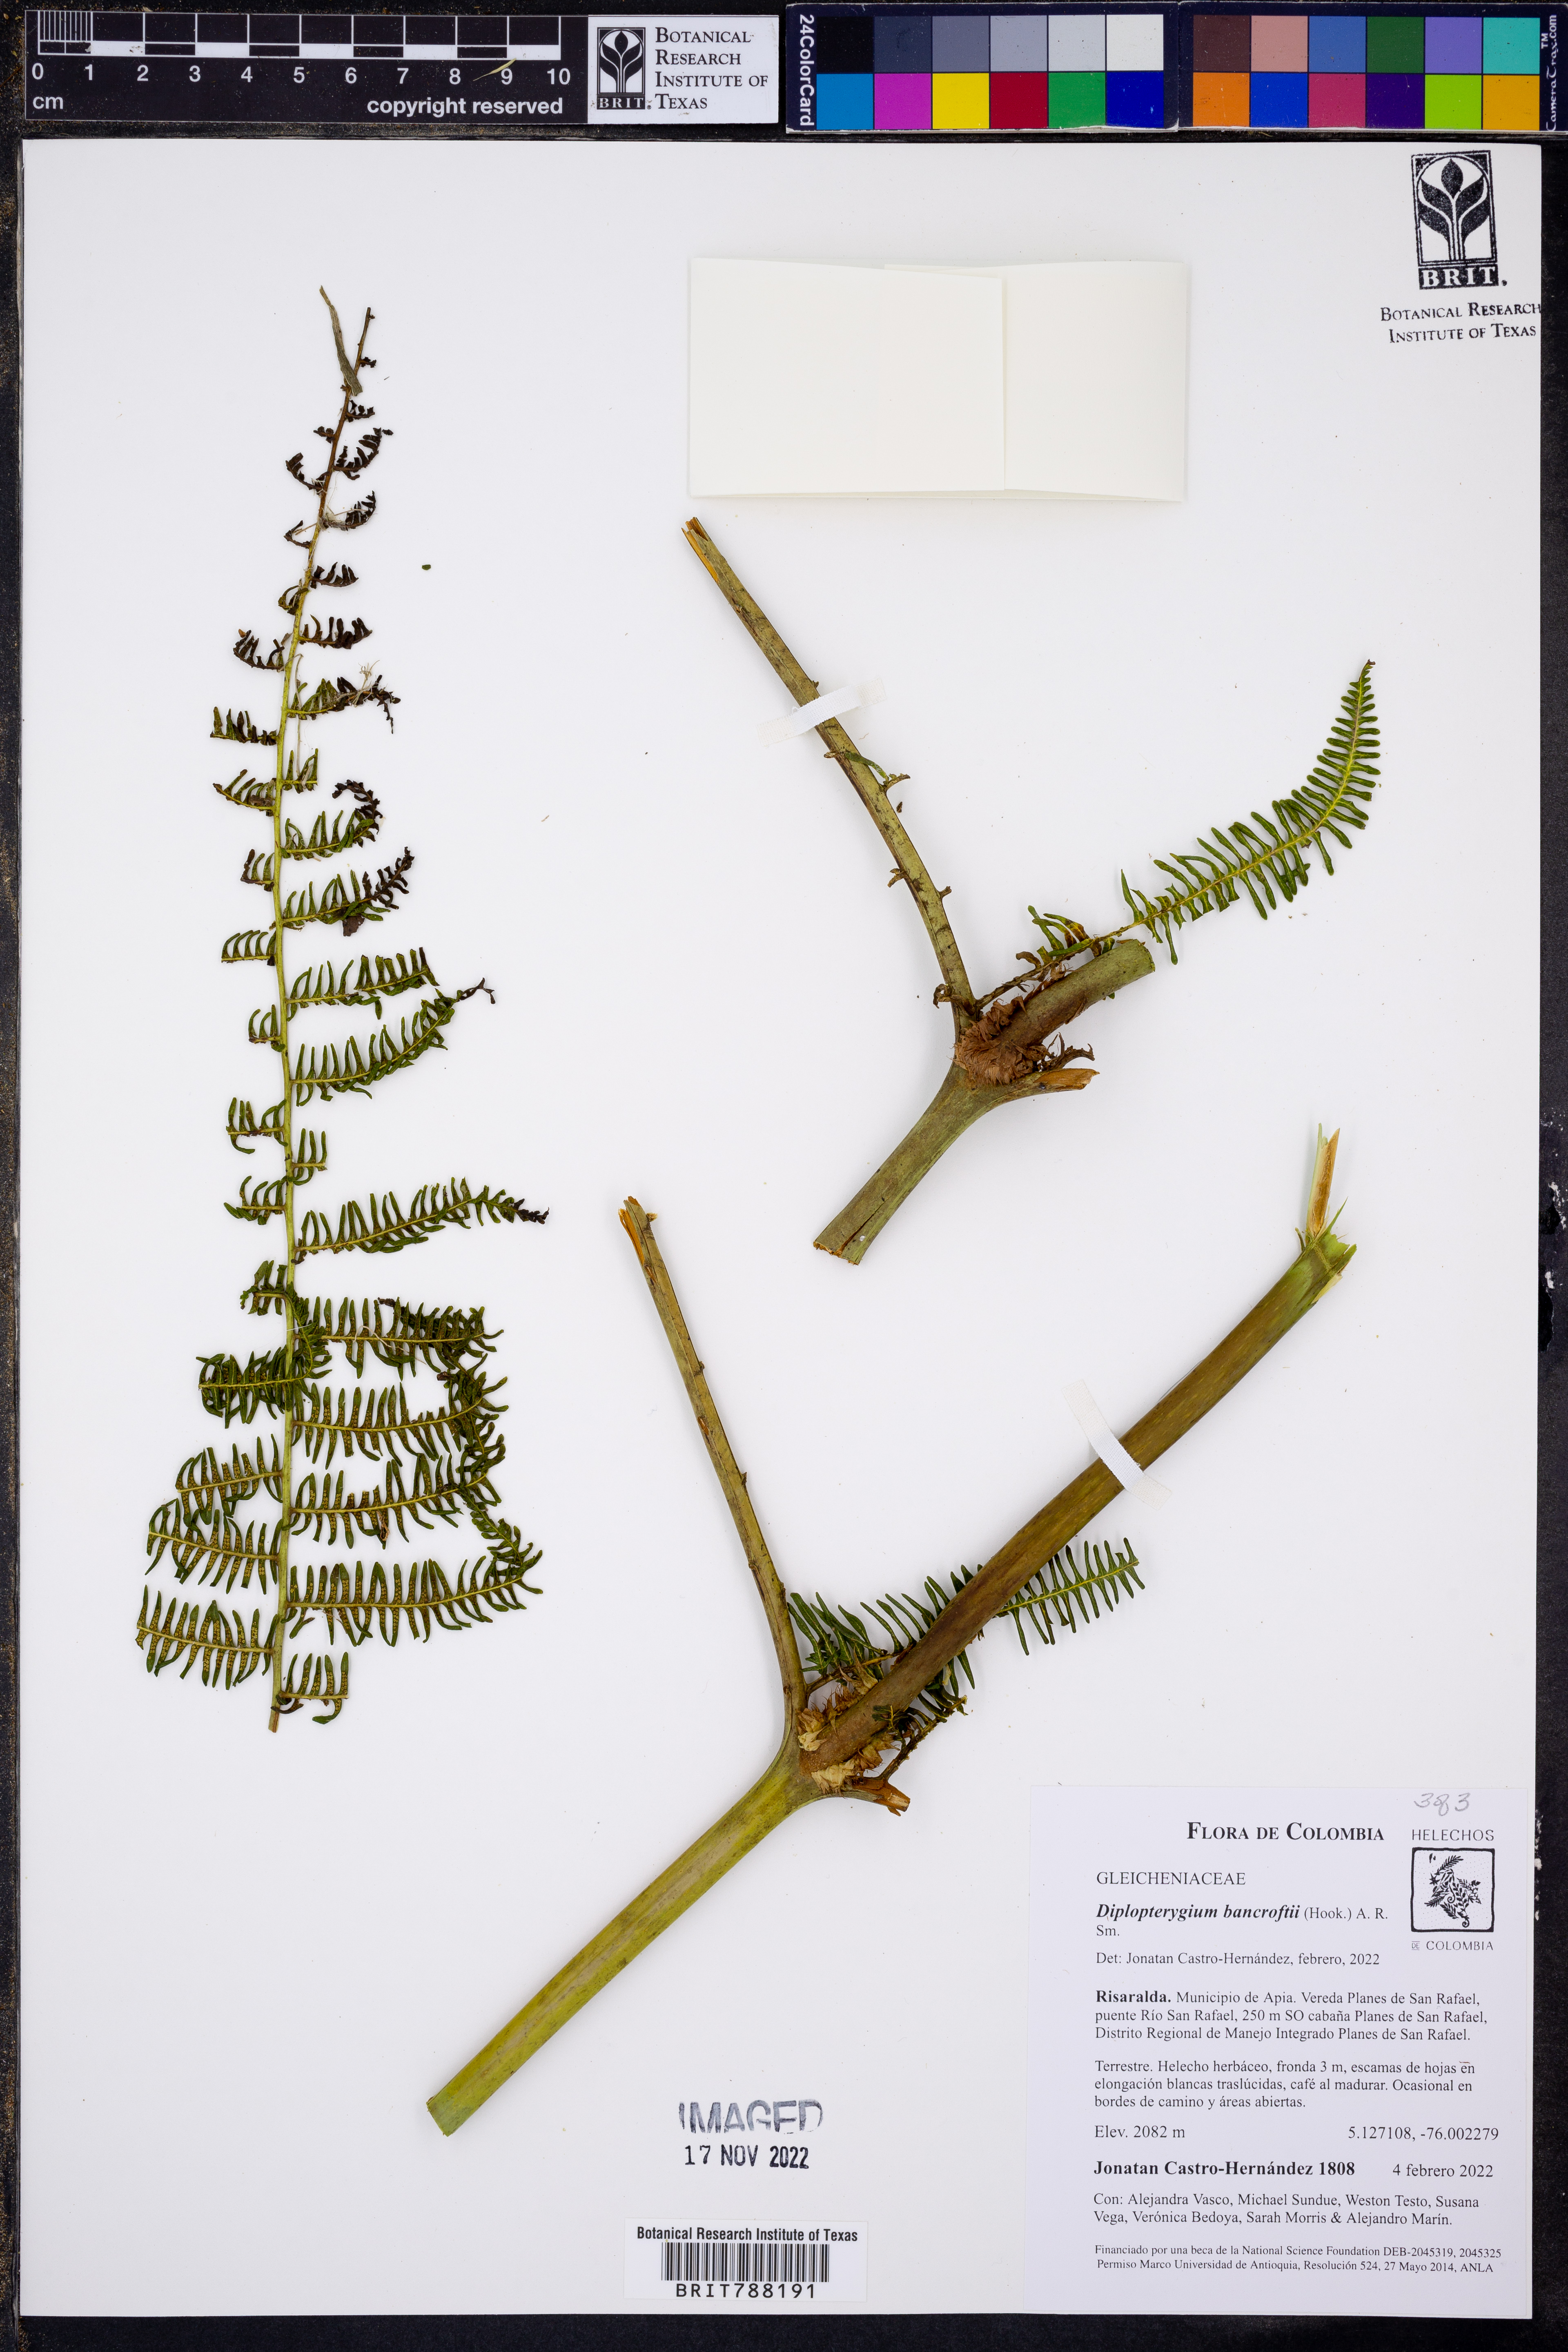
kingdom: Plantae
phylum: Tracheophyta
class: Polypodiopsida
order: Gleicheniales
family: Gleicheniaceae
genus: Diplopterygium
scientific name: Diplopterygium bancroftii
